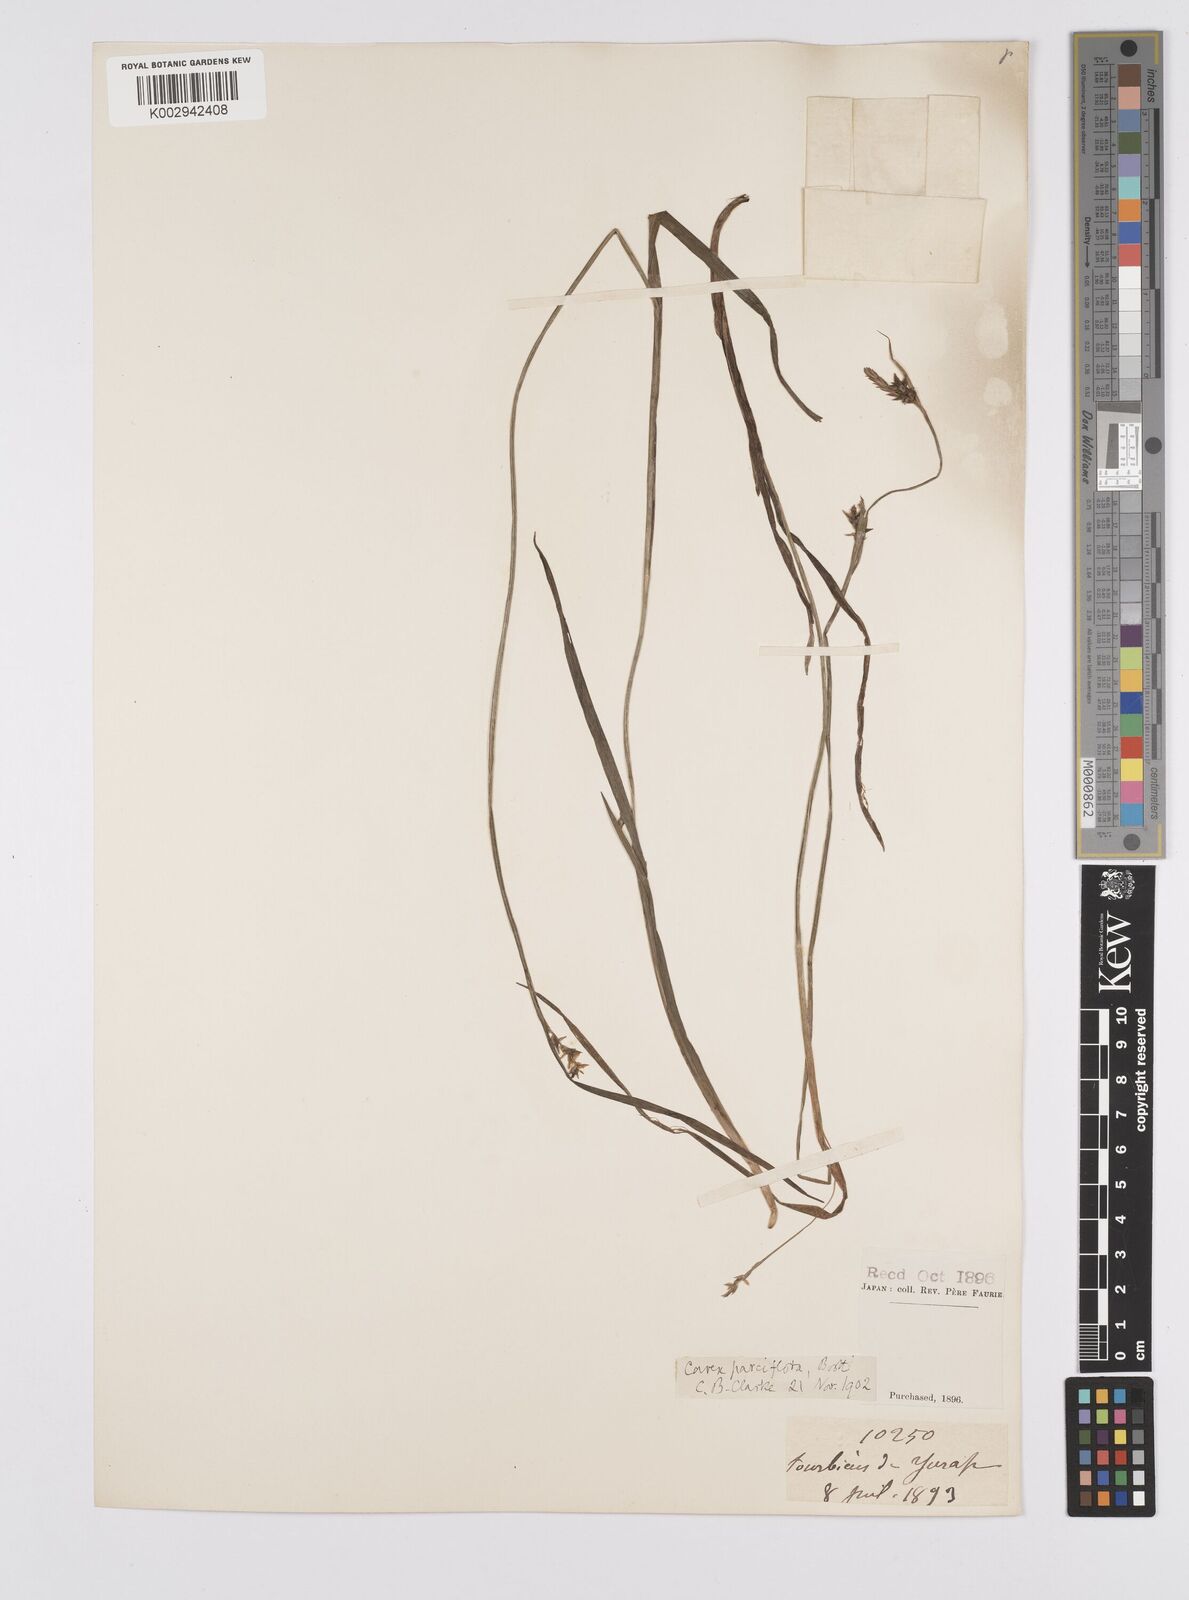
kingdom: Plantae
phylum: Tracheophyta
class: Liliopsida
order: Poales
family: Cyperaceae
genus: Carex
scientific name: Carex parciflora
